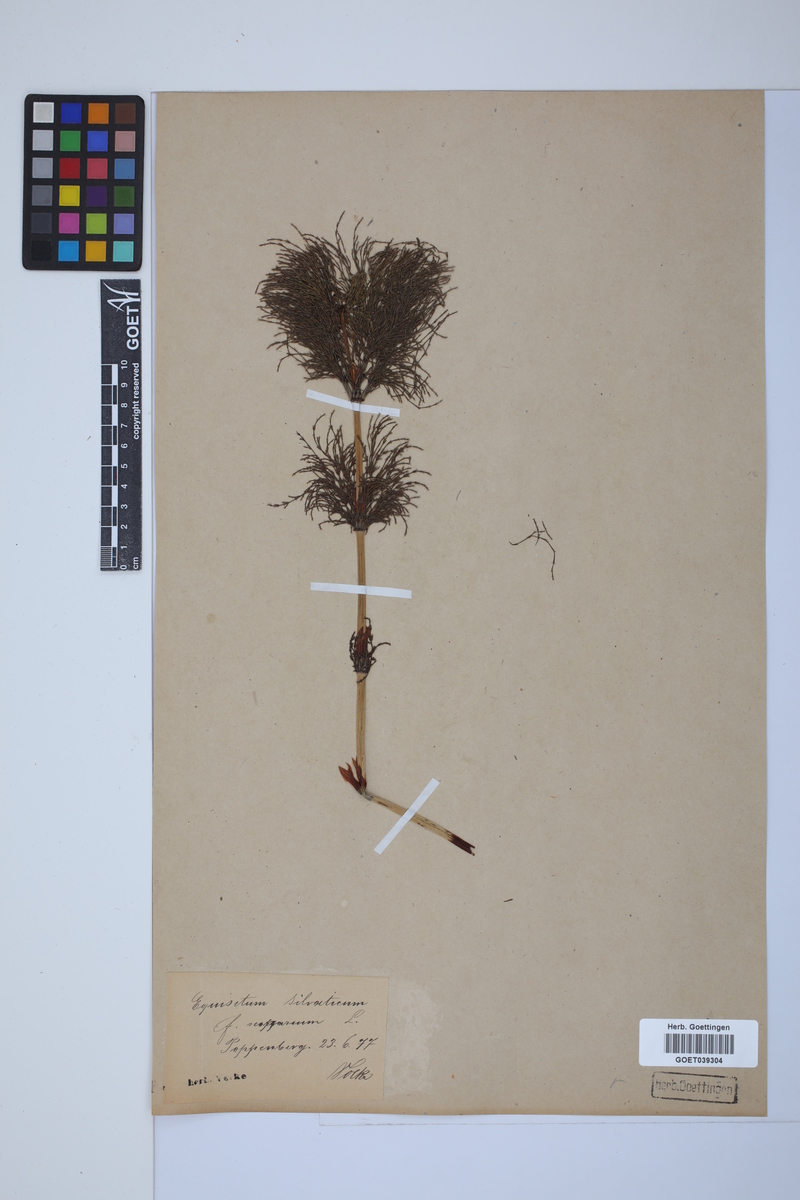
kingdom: Plantae
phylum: Tracheophyta
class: Polypodiopsida
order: Equisetales
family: Equisetaceae
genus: Equisetum
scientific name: Equisetum sylvaticum
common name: Wood horsetail
